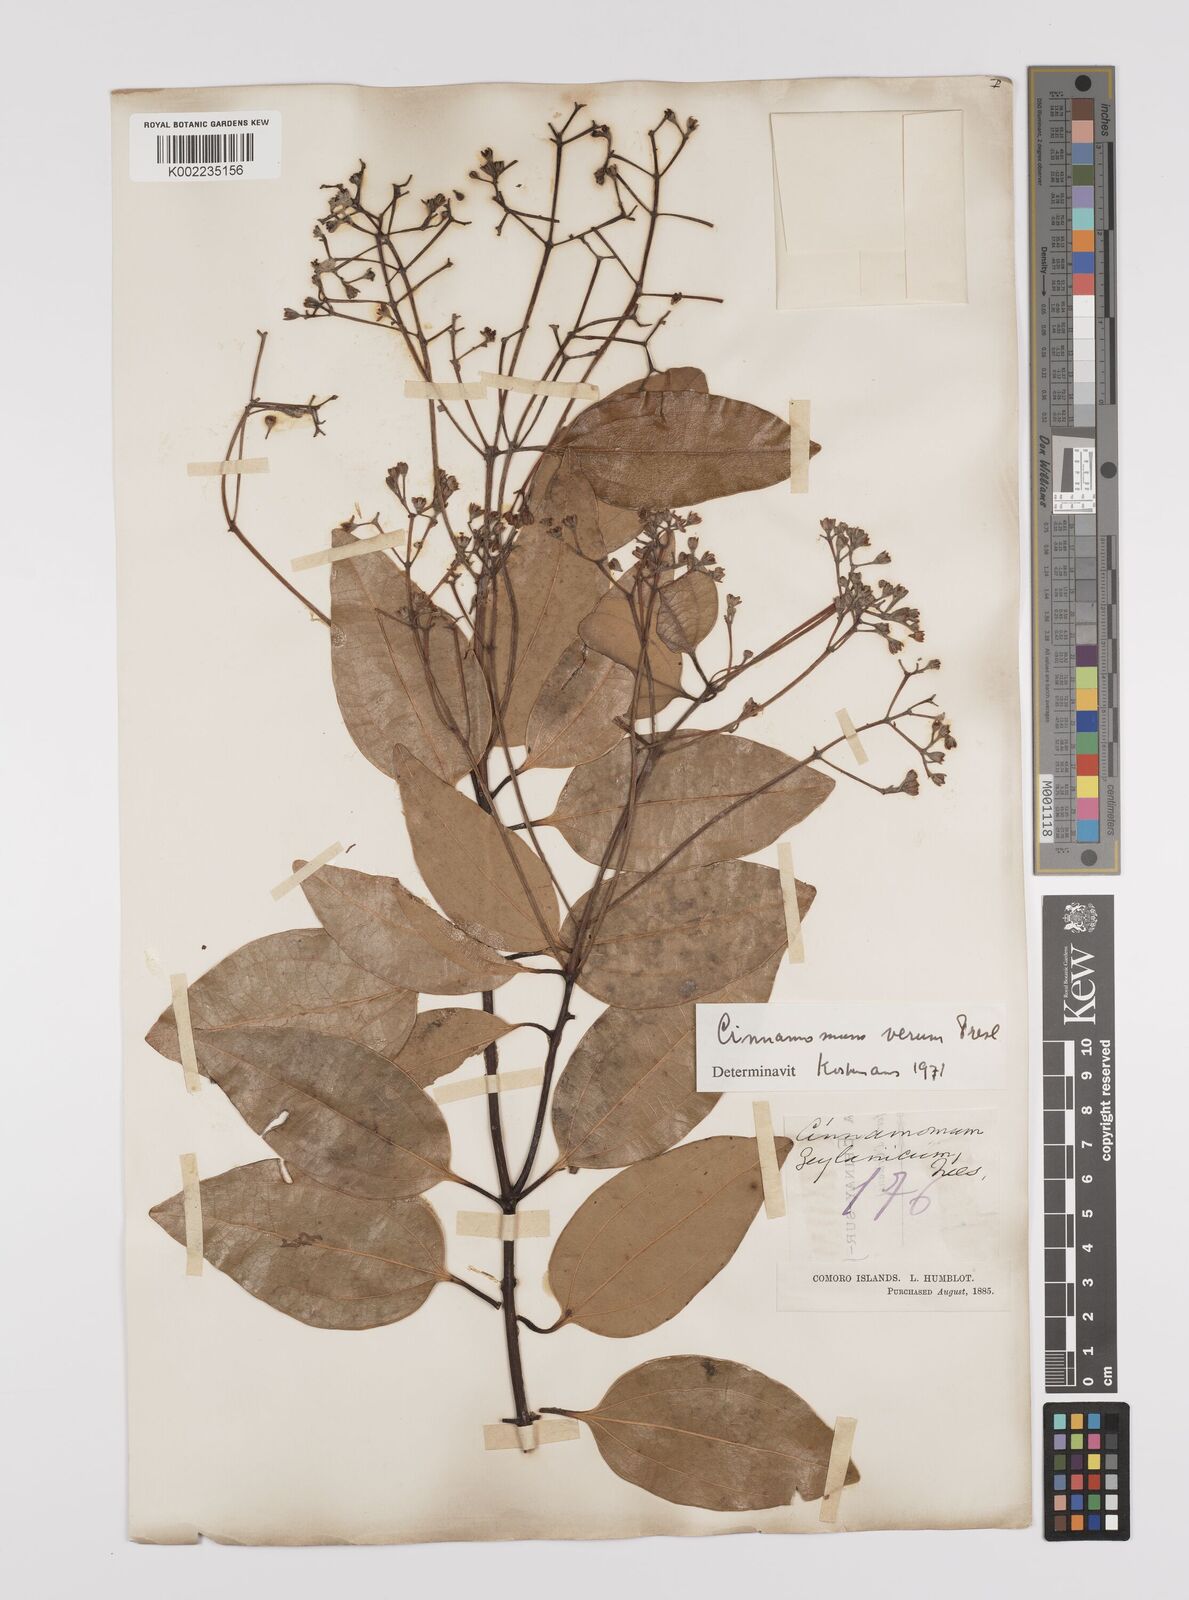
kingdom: Plantae
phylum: Tracheophyta
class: Magnoliopsida
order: Laurales
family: Lauraceae
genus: Cinnamomum
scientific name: Cinnamomum verum
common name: Cinnamon
